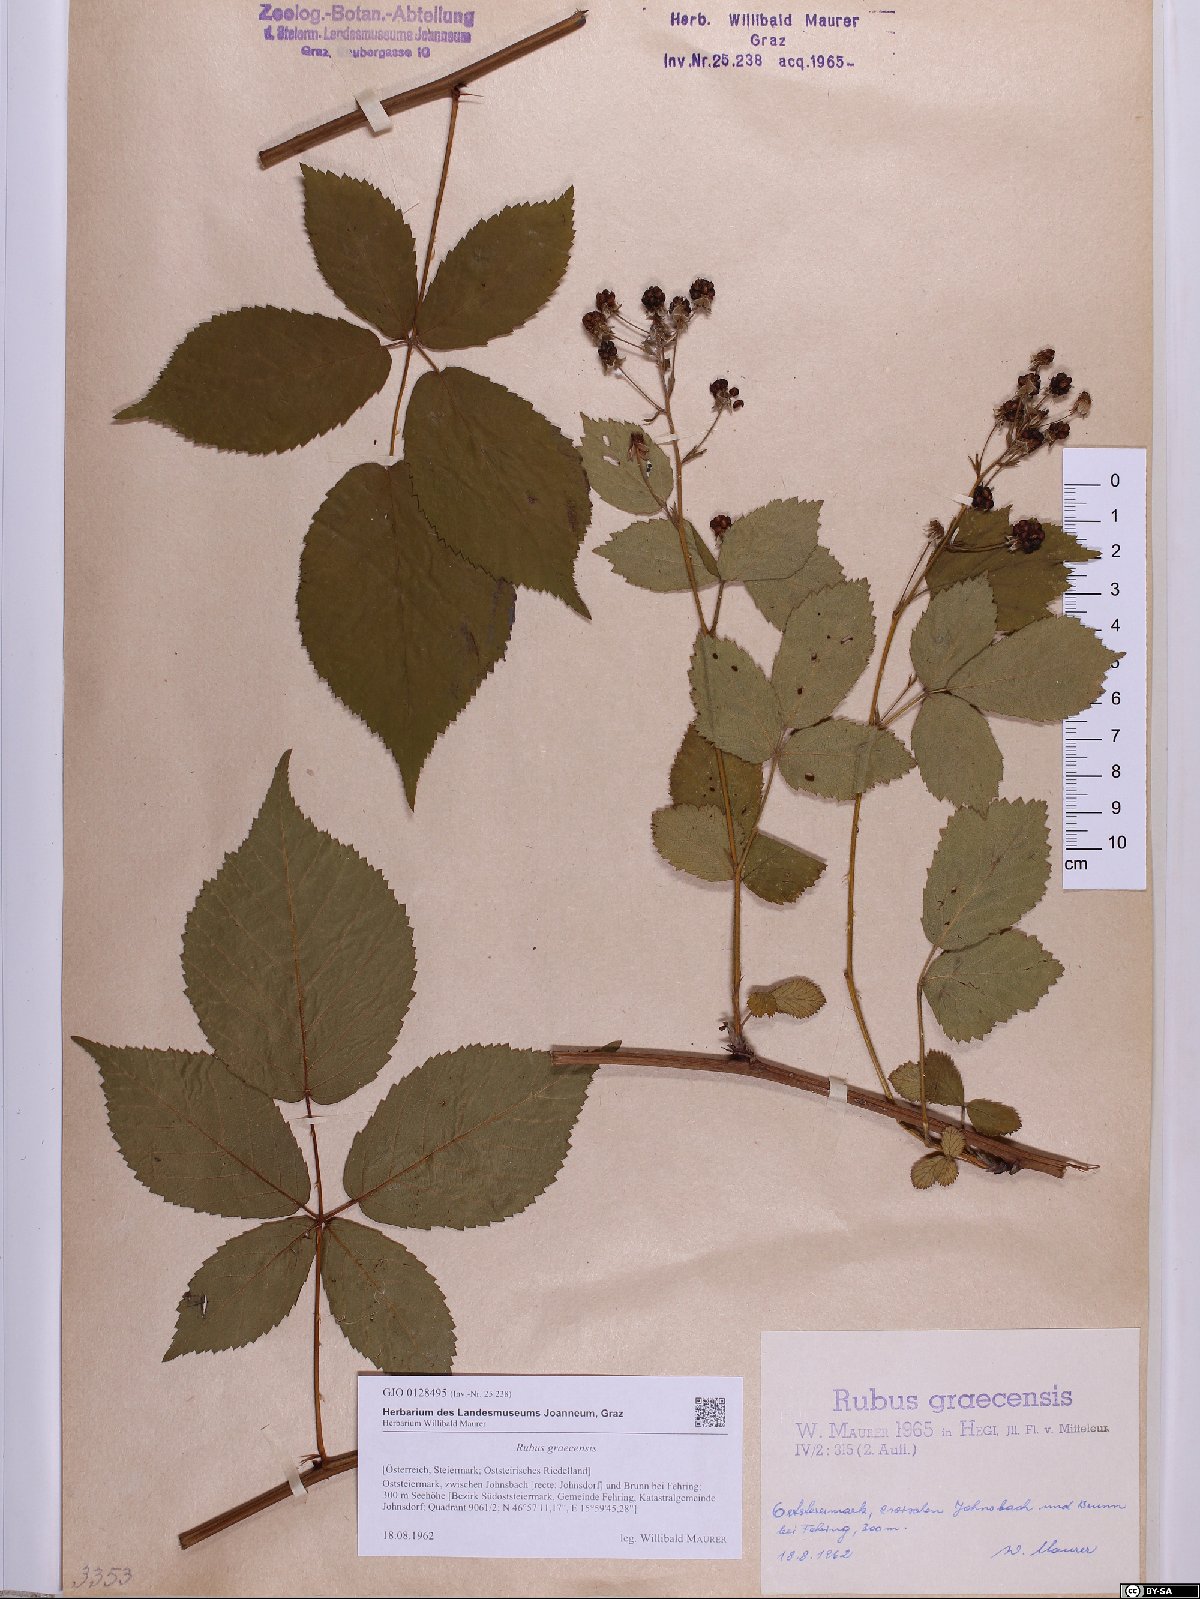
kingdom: Plantae
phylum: Tracheophyta
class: Magnoliopsida
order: Rosales
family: Rosaceae
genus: Rubus
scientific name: Rubus graecensis
